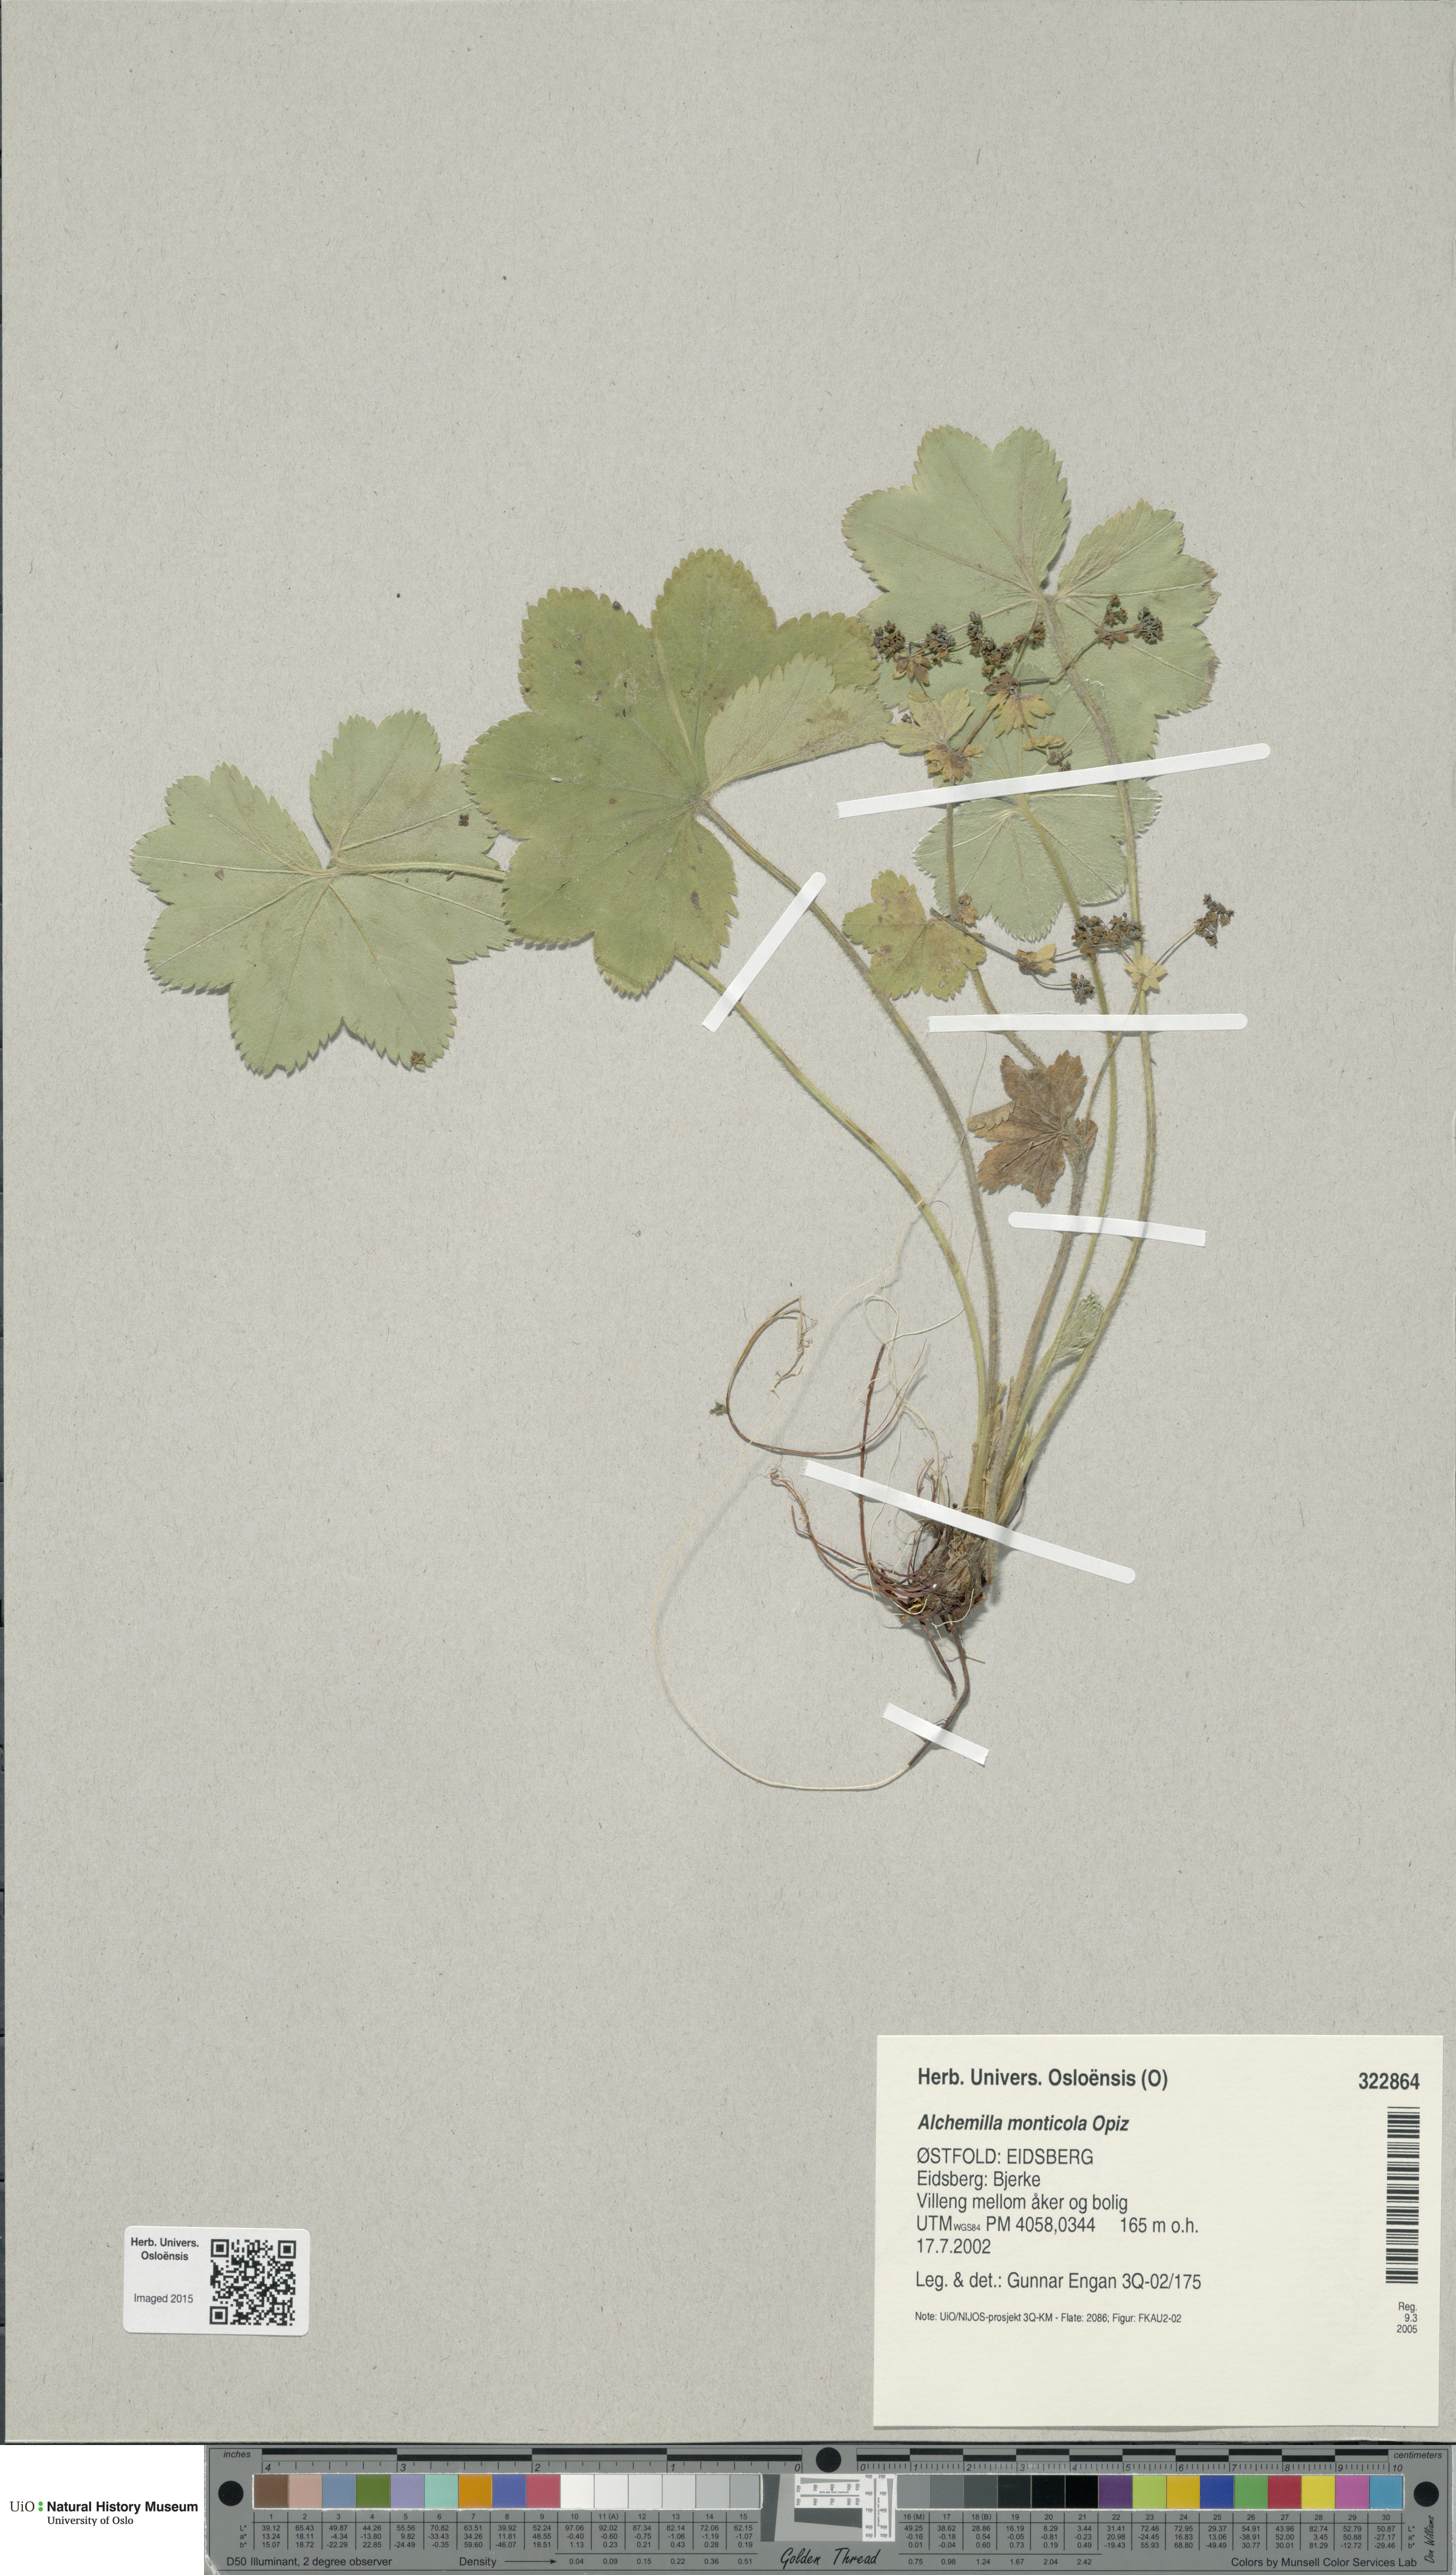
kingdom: Plantae
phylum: Tracheophyta
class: Magnoliopsida
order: Rosales
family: Rosaceae
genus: Alchemilla
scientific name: Alchemilla monticola
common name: Hairy lady's mantle
